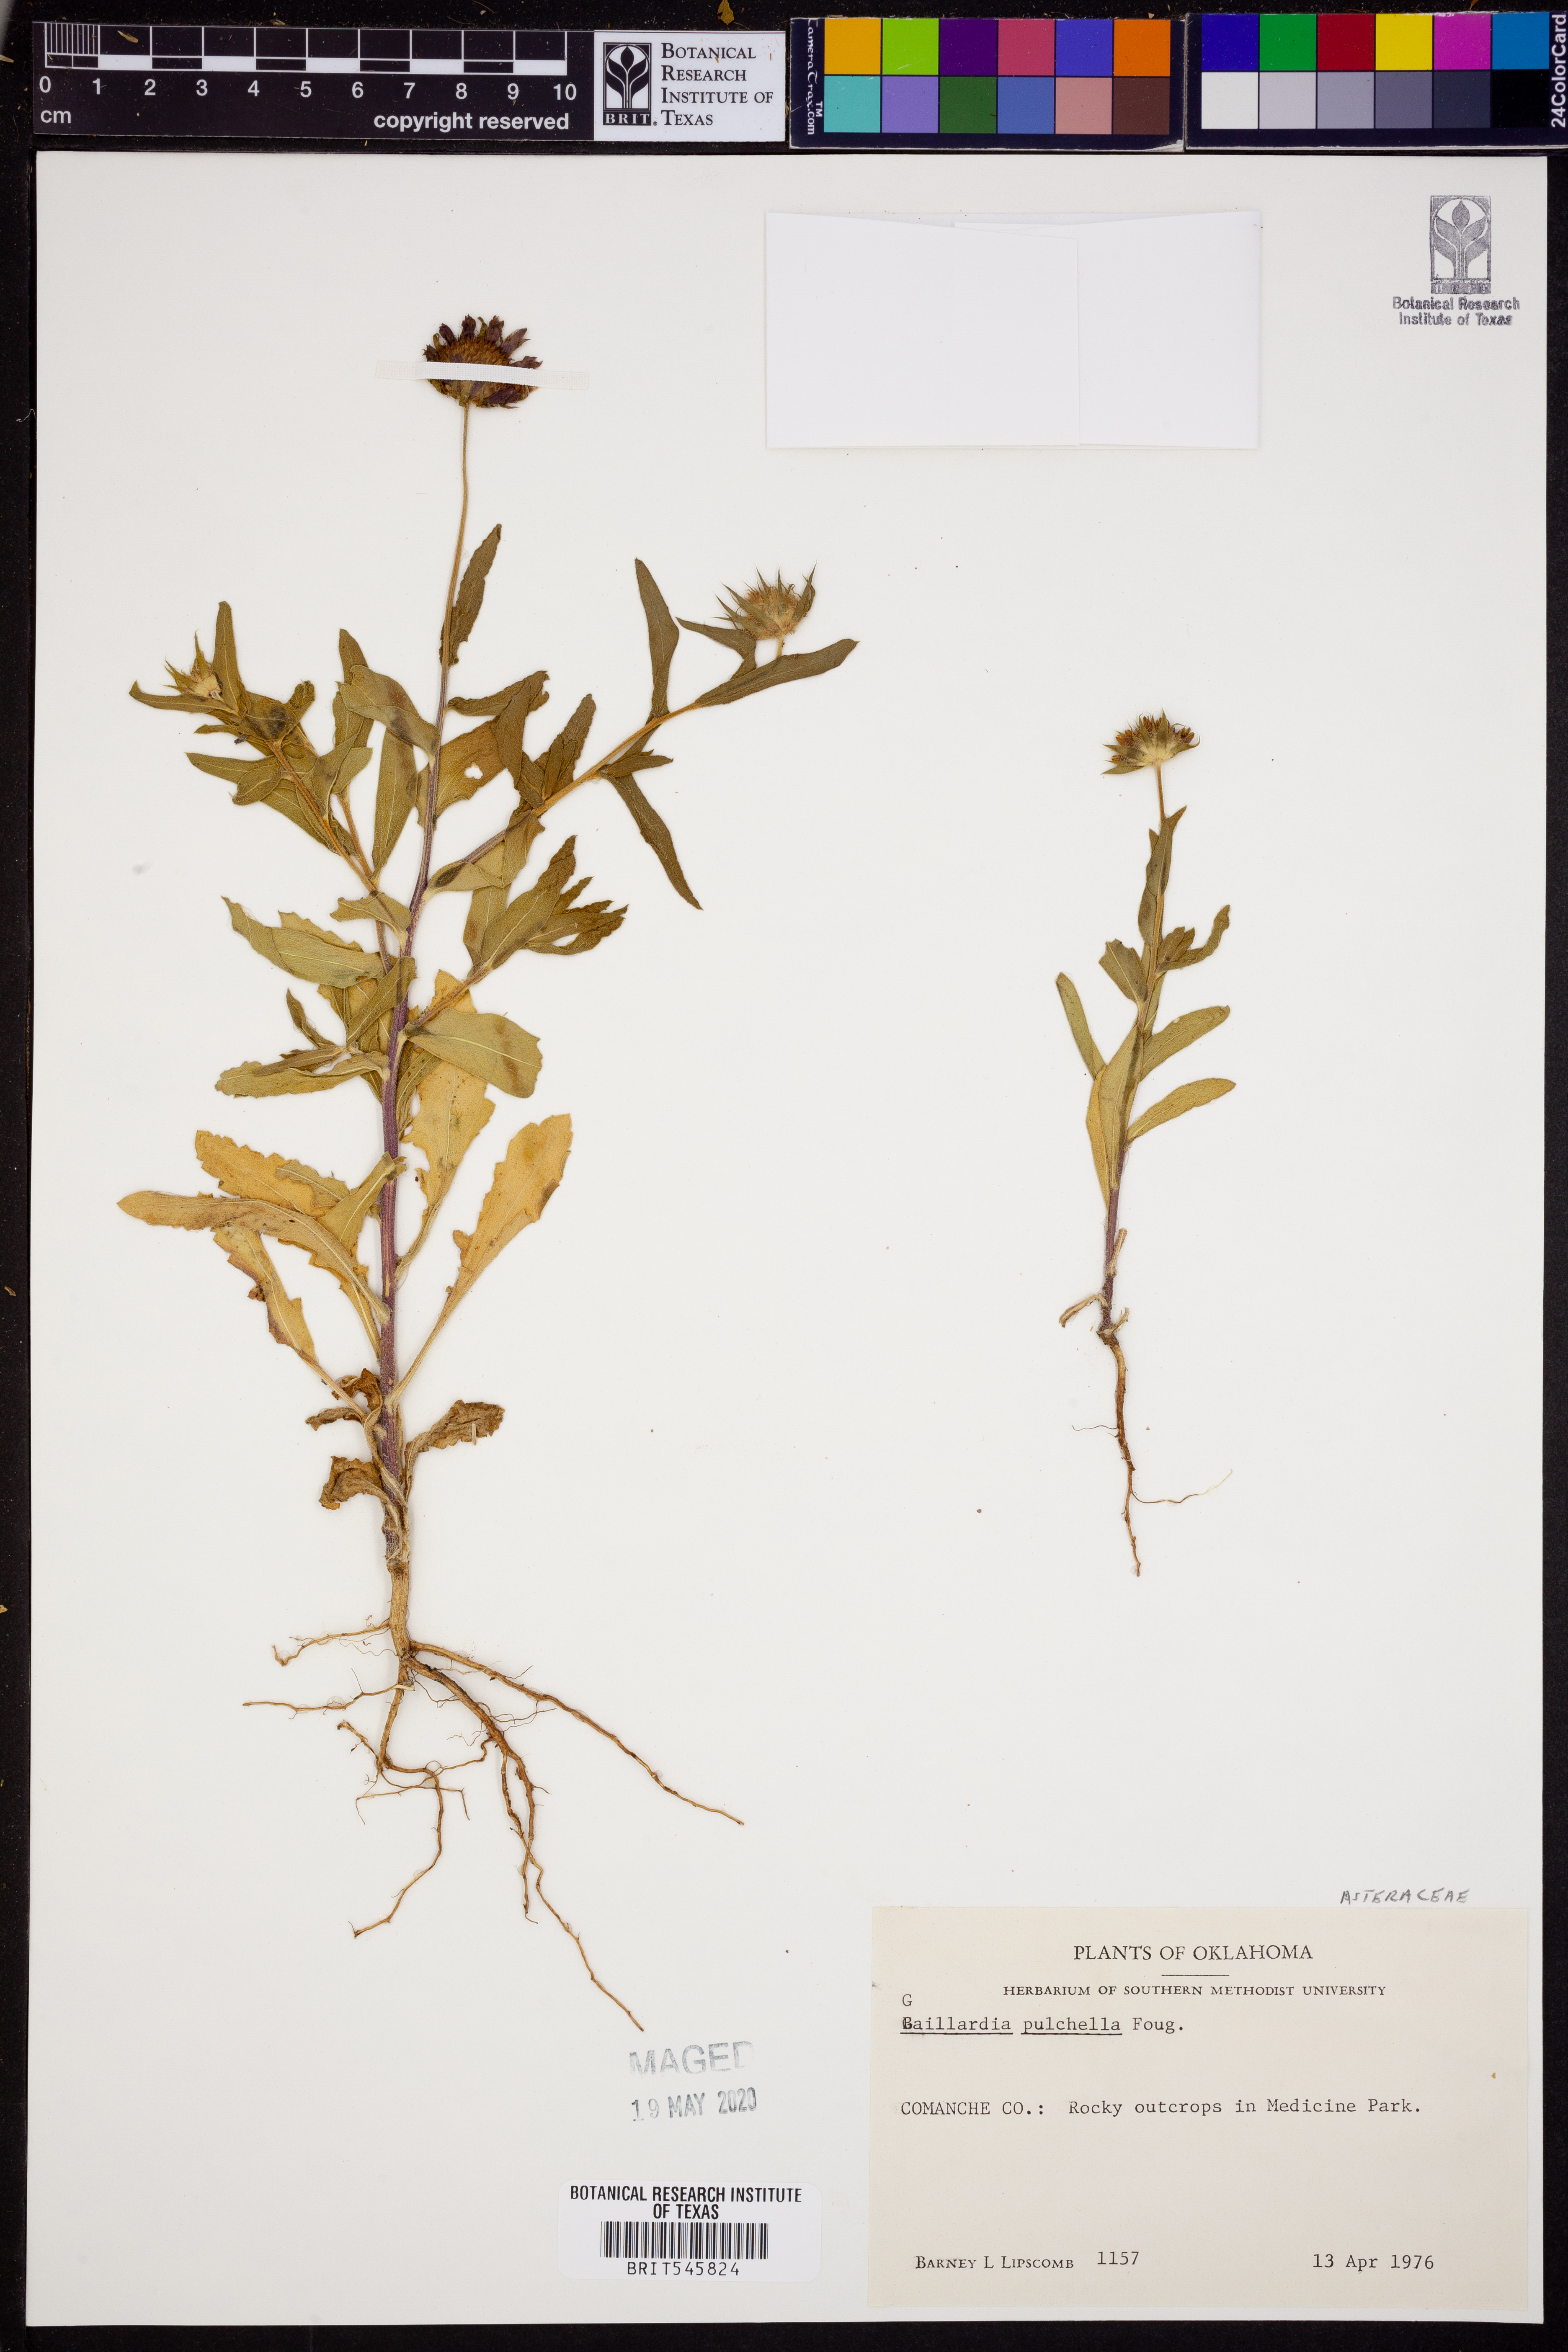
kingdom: Plantae
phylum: Tracheophyta
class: Magnoliopsida
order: Asterales
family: Asteraceae
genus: Gaillardia
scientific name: Gaillardia pulchella
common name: Firewheel
